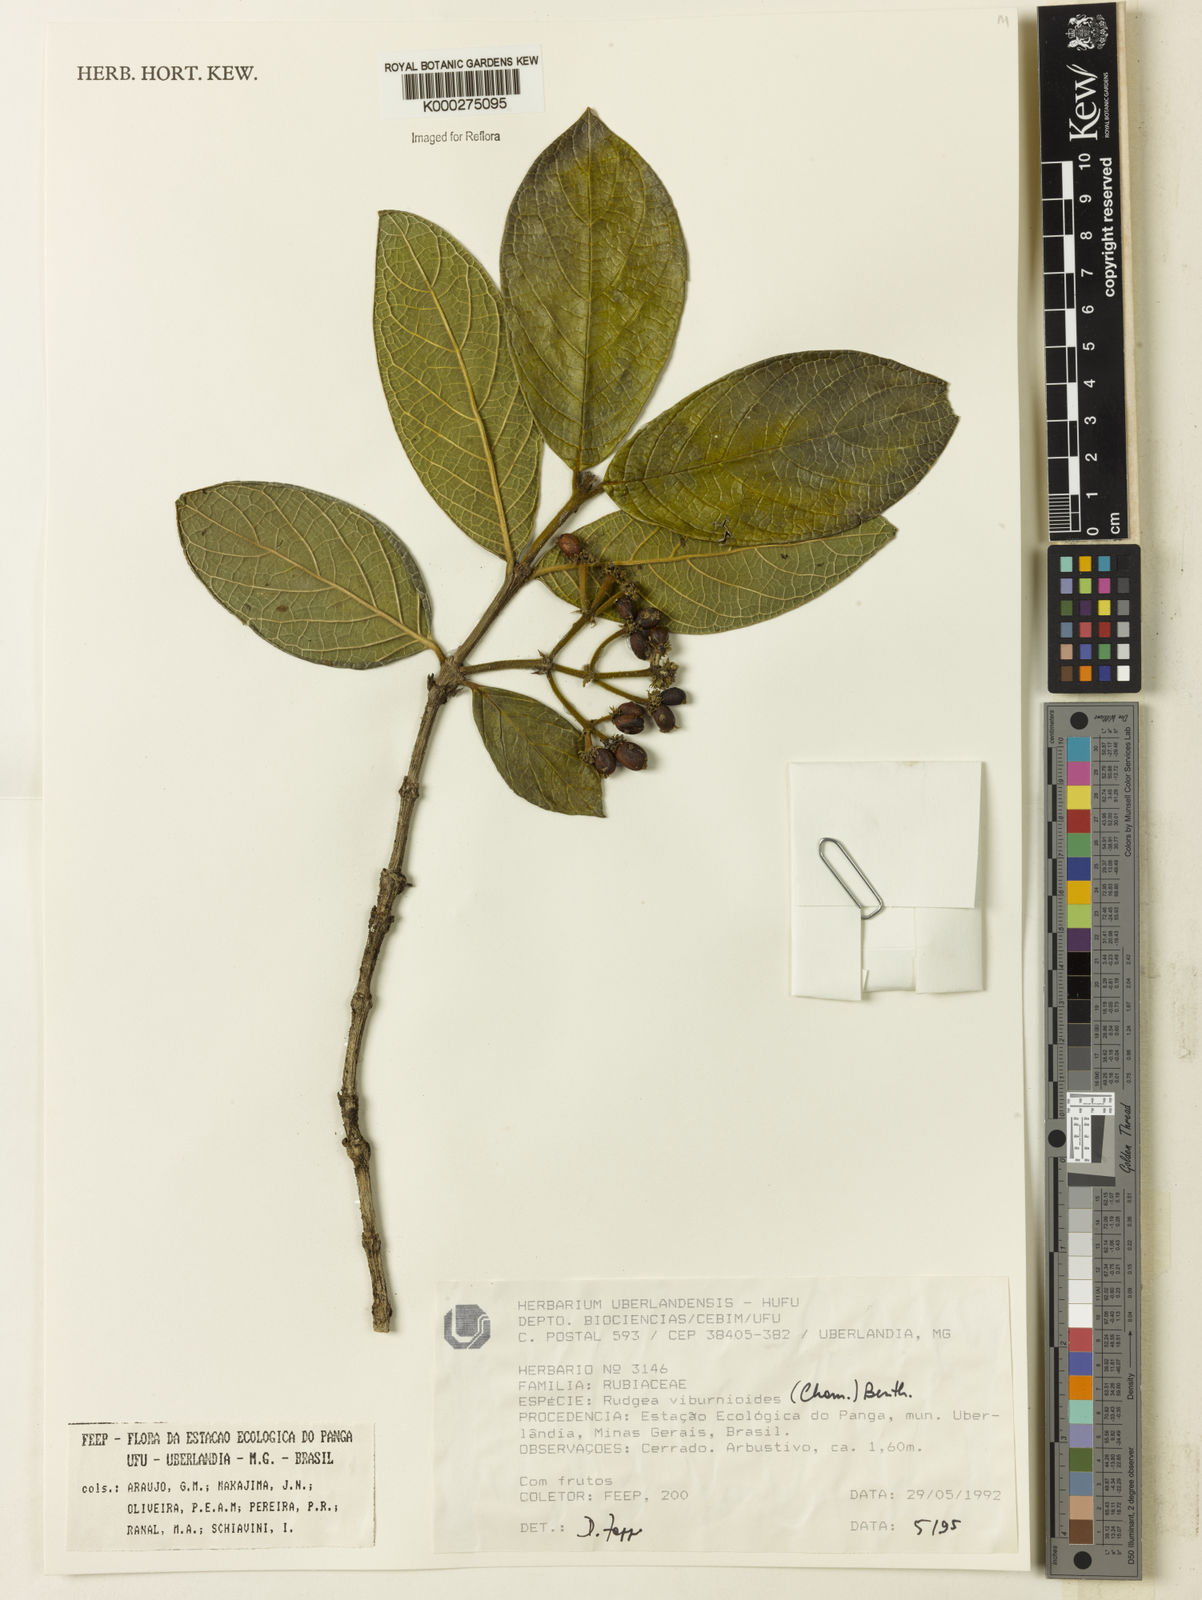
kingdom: Plantae
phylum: Tracheophyta
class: Magnoliopsida
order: Gentianales
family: Rubiaceae
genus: Rudgea
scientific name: Rudgea viburnoides
